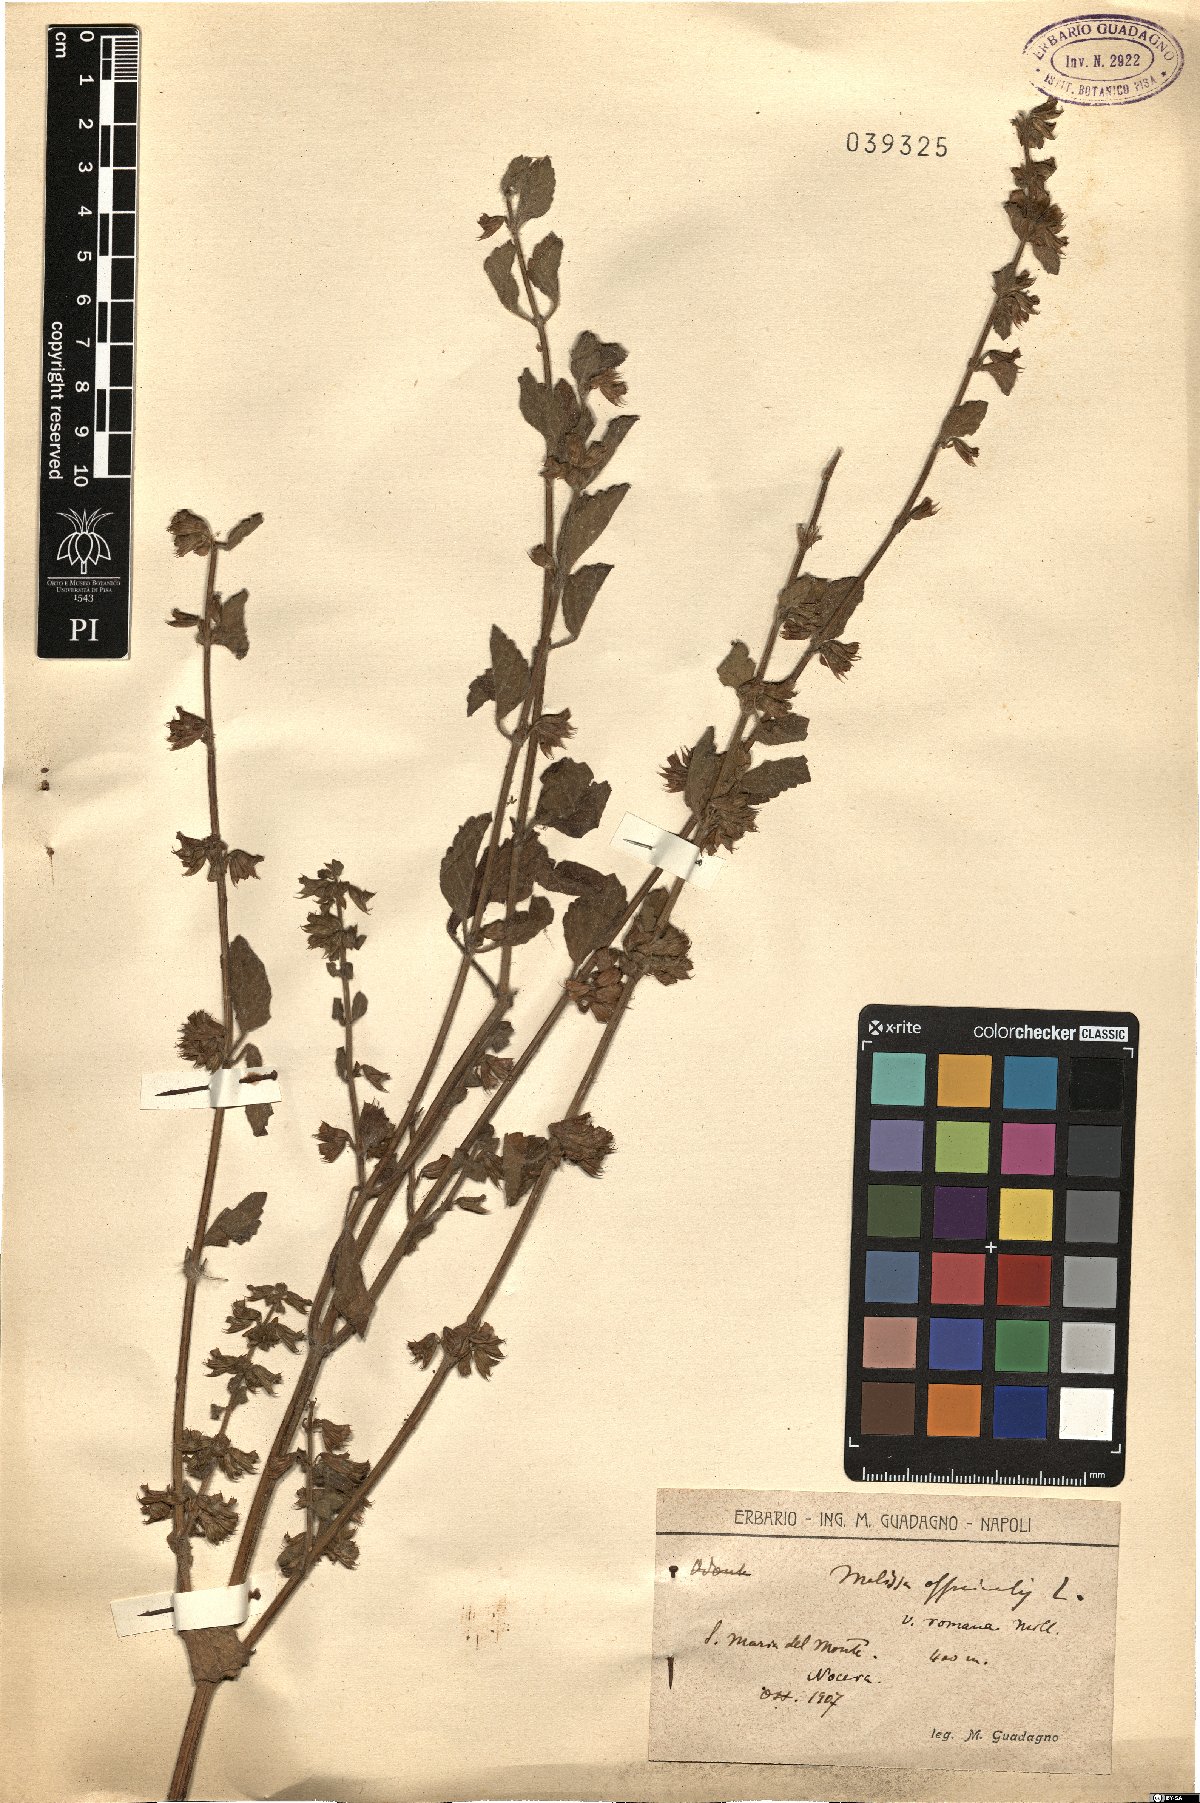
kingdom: Plantae
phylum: Tracheophyta
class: Magnoliopsida
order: Lamiales
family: Lamiaceae
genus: Melissa
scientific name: Melissa officinalis
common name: Balm
